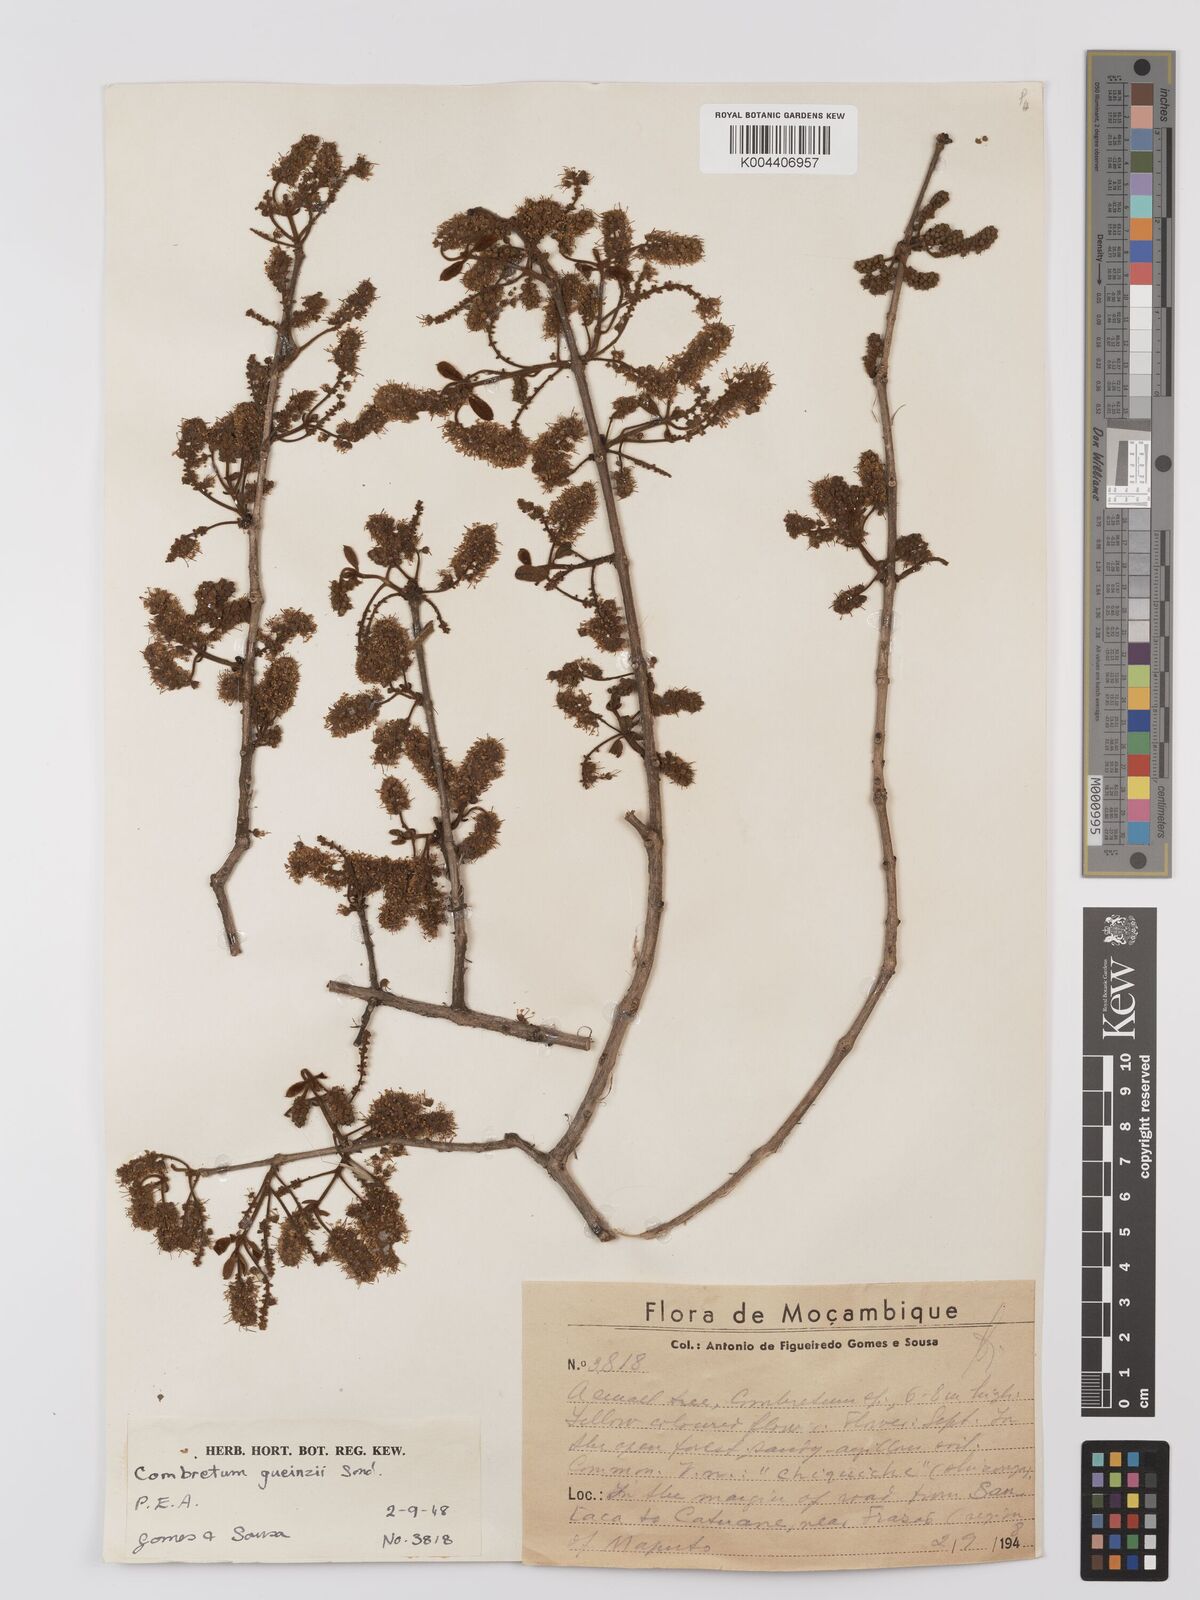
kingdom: Plantae
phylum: Tracheophyta
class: Magnoliopsida
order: Myrtales
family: Combretaceae
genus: Combretum
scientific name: Combretum
